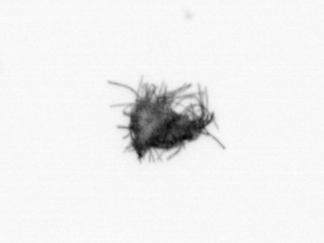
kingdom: Bacteria
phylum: Cyanobacteria
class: Cyanobacteriia
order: Cyanobacteriales
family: Microcoleaceae
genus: Trichodesmium
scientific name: Trichodesmium
